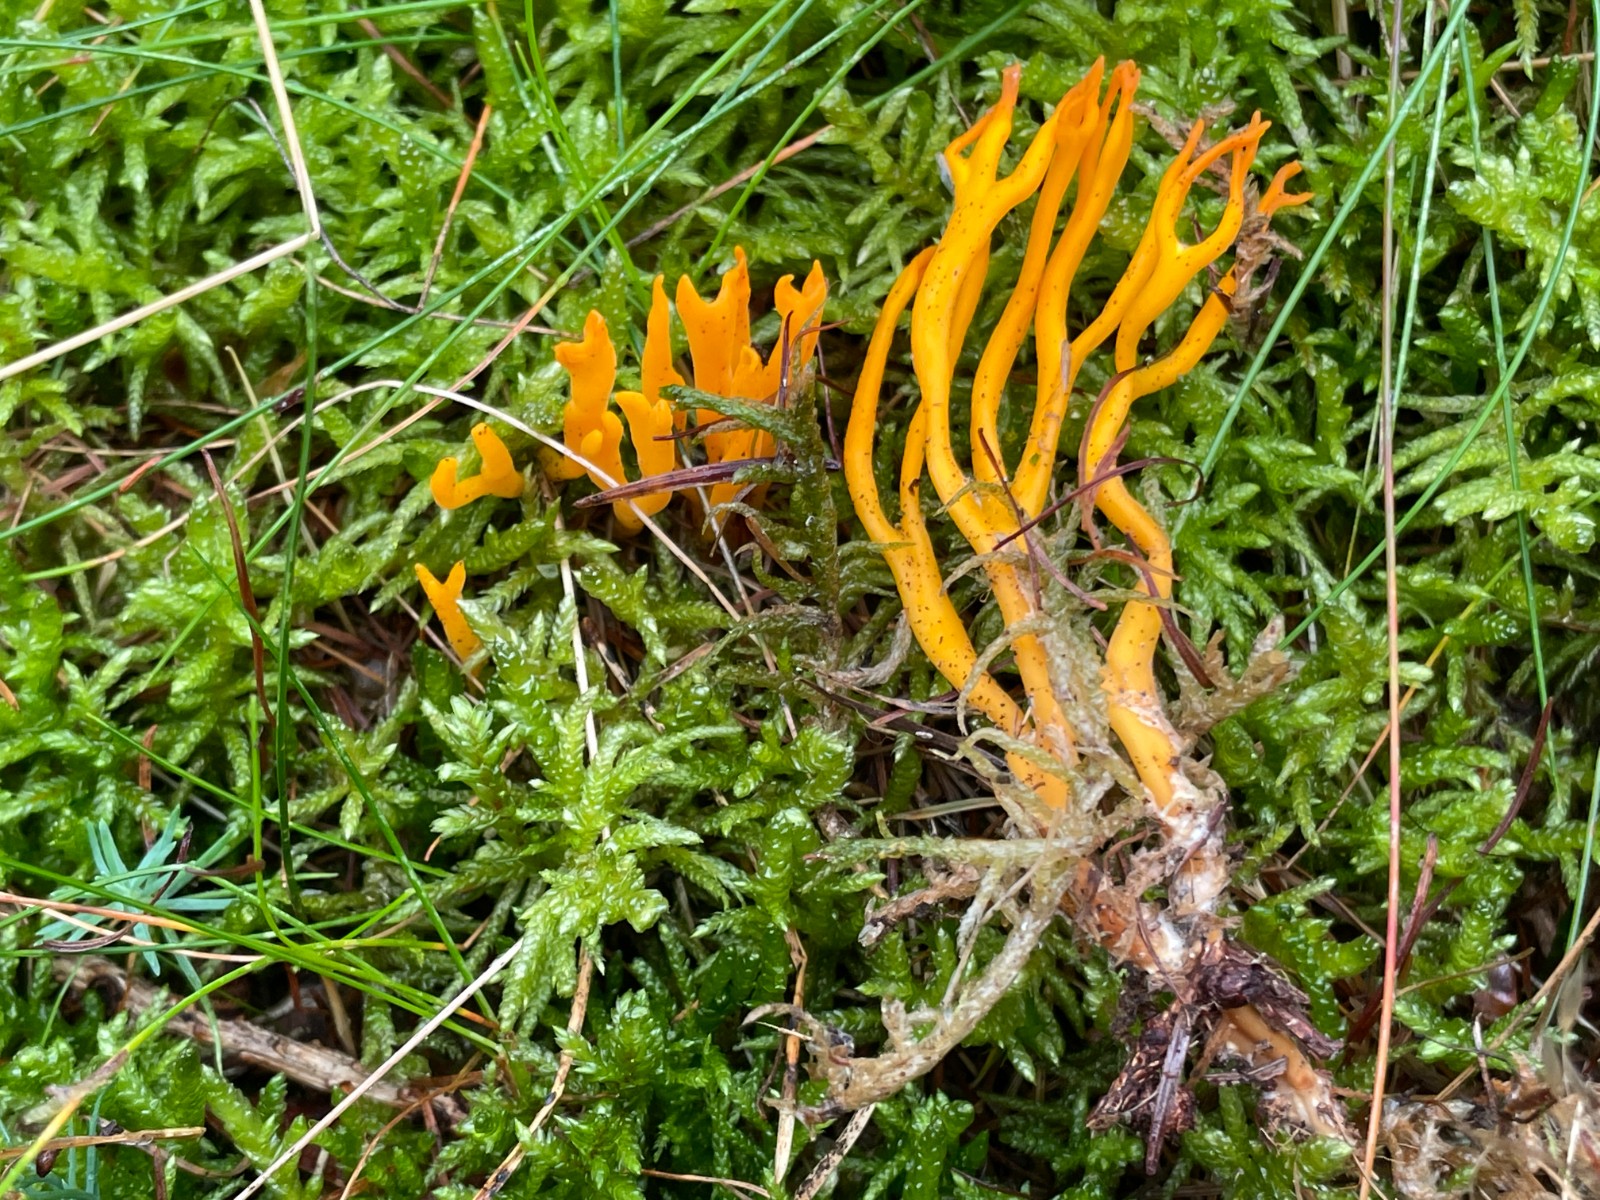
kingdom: Fungi
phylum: Basidiomycota
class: Dacrymycetes
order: Dacrymycetales
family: Dacrymycetaceae
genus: Calocera
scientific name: Calocera viscosa
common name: almindelig guldgaffel
